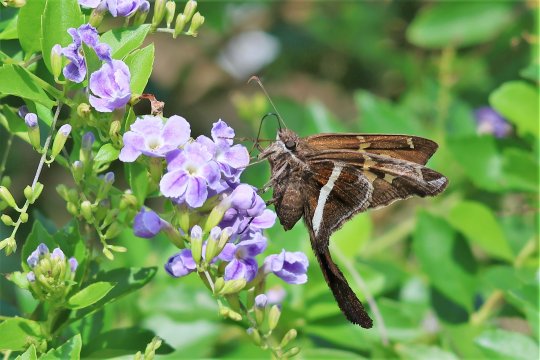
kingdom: Animalia
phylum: Arthropoda
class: Insecta
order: Lepidoptera
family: Hesperiidae
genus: Chioides
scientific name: Chioides catillus
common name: White-striped Longtail
